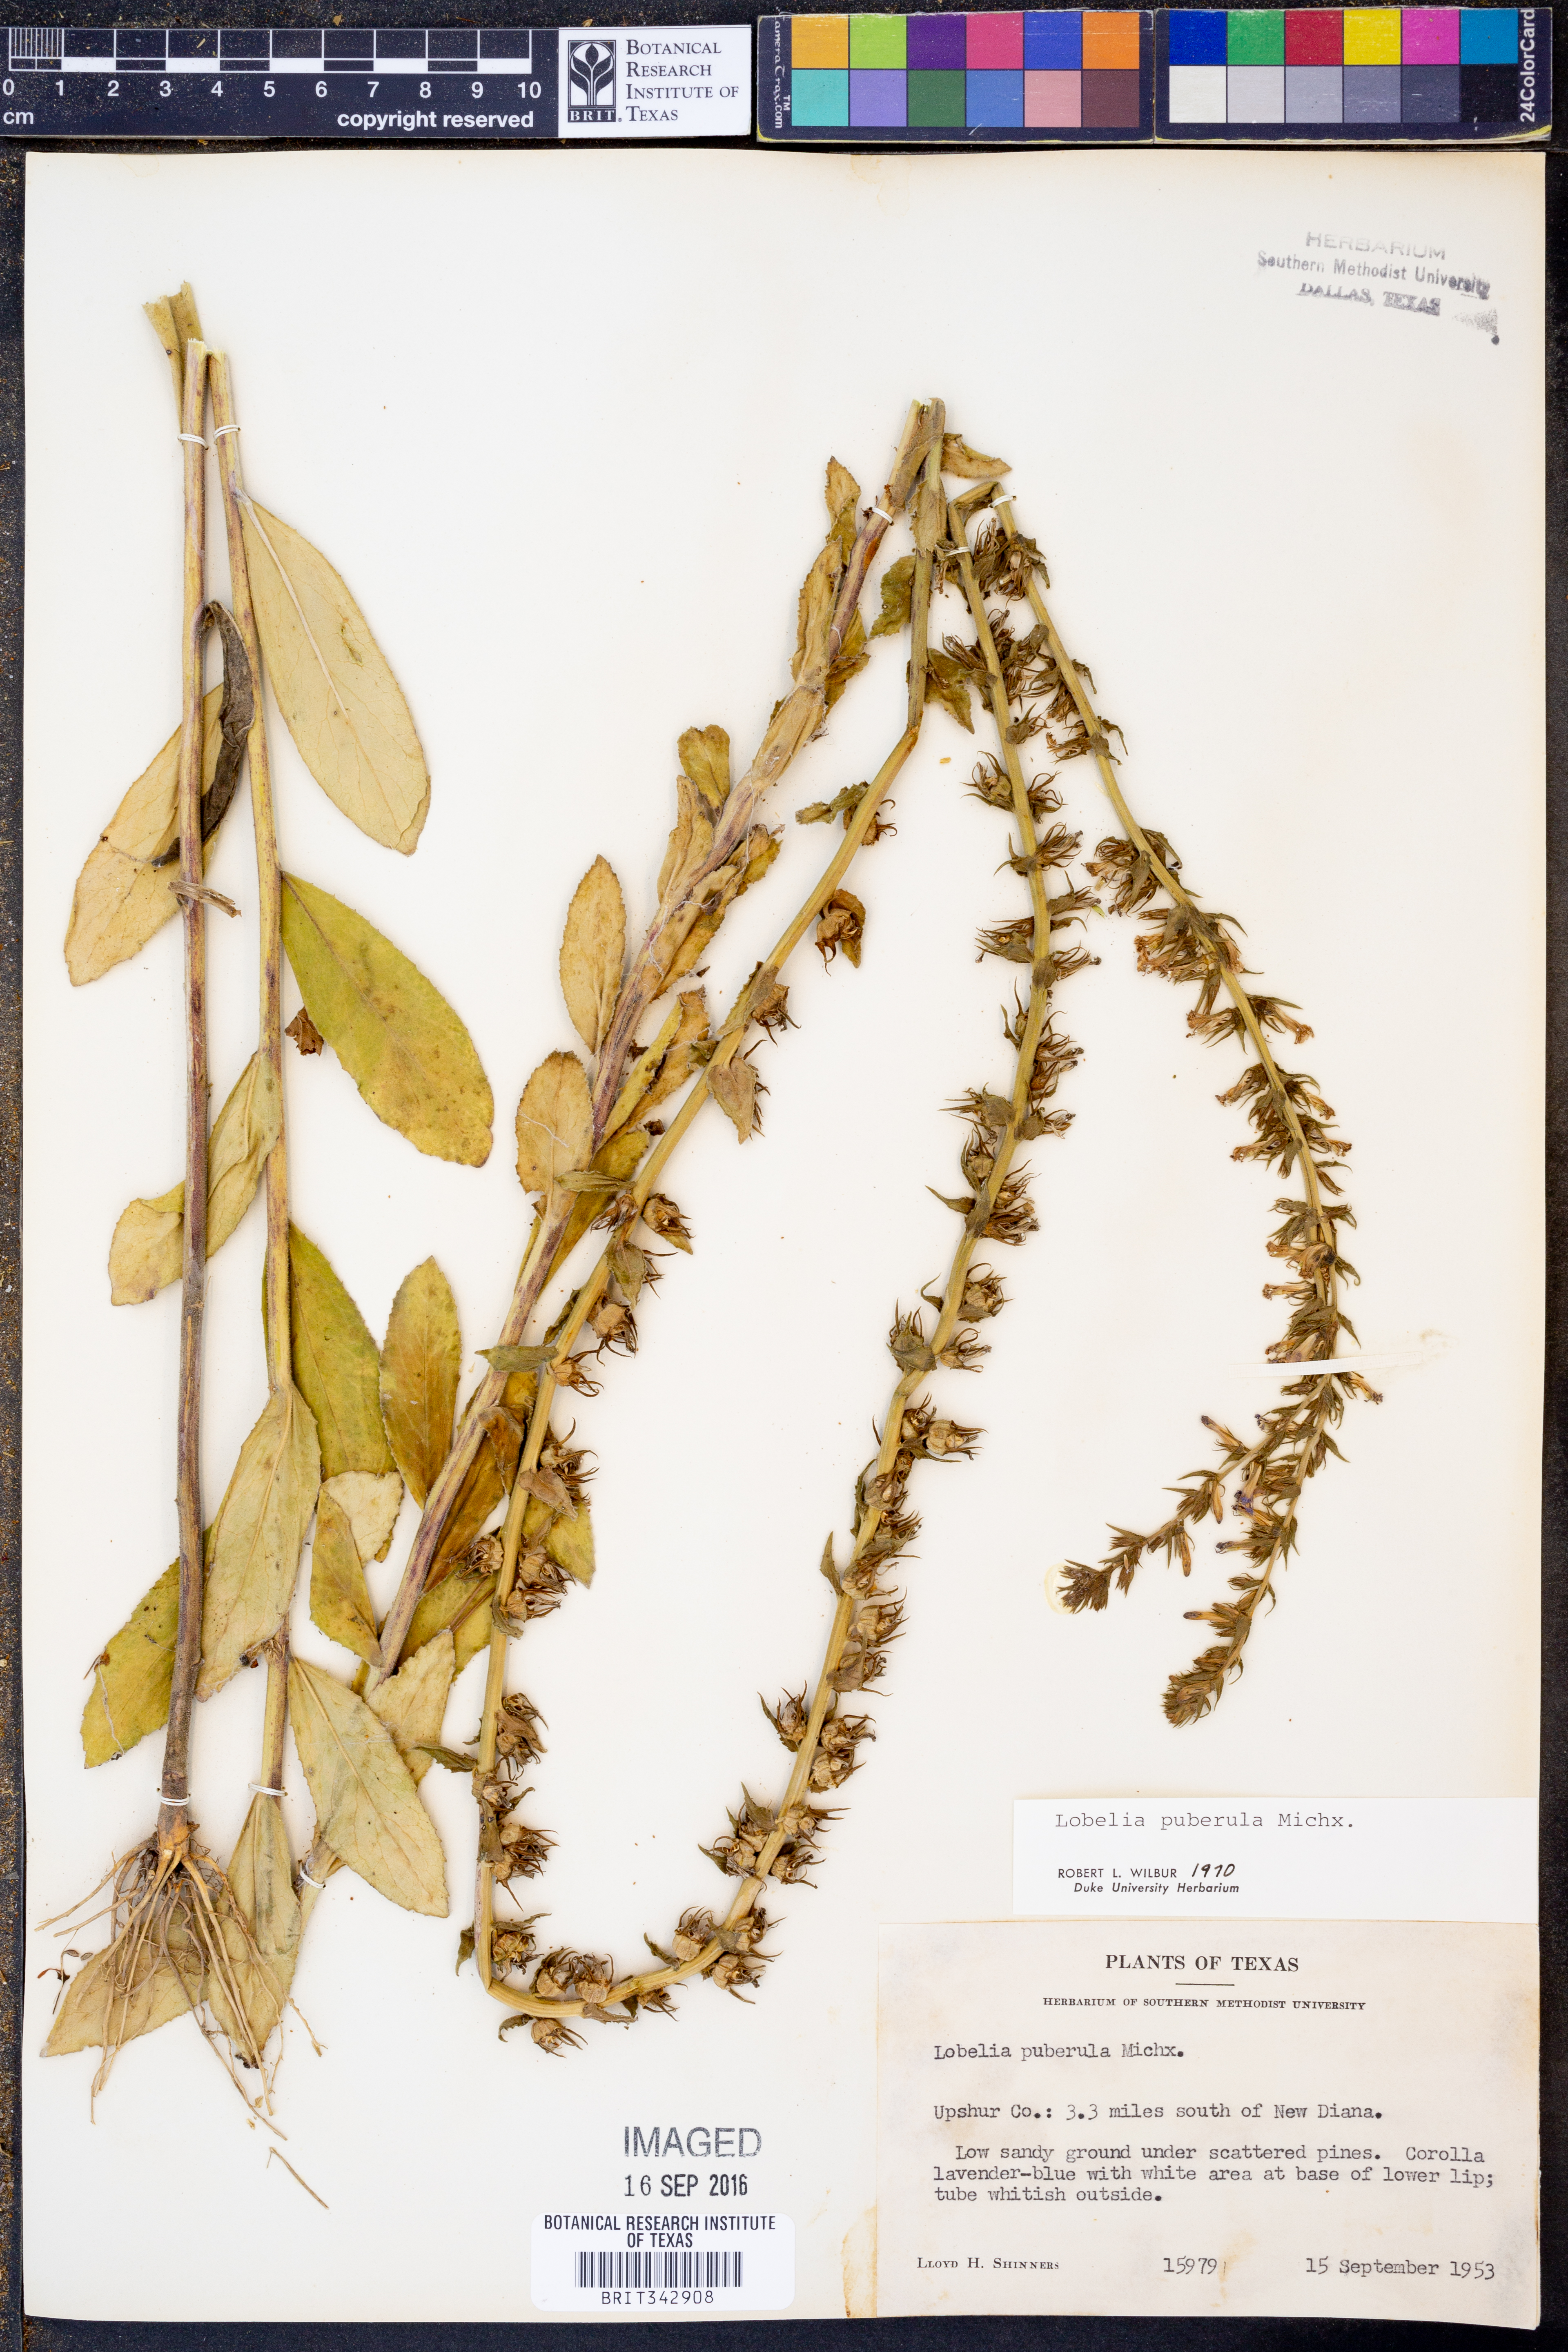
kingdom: Plantae
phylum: Tracheophyta
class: Magnoliopsida
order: Asterales
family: Campanulaceae
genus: Lobelia
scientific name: Lobelia puberula
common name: Purple dewdrop
